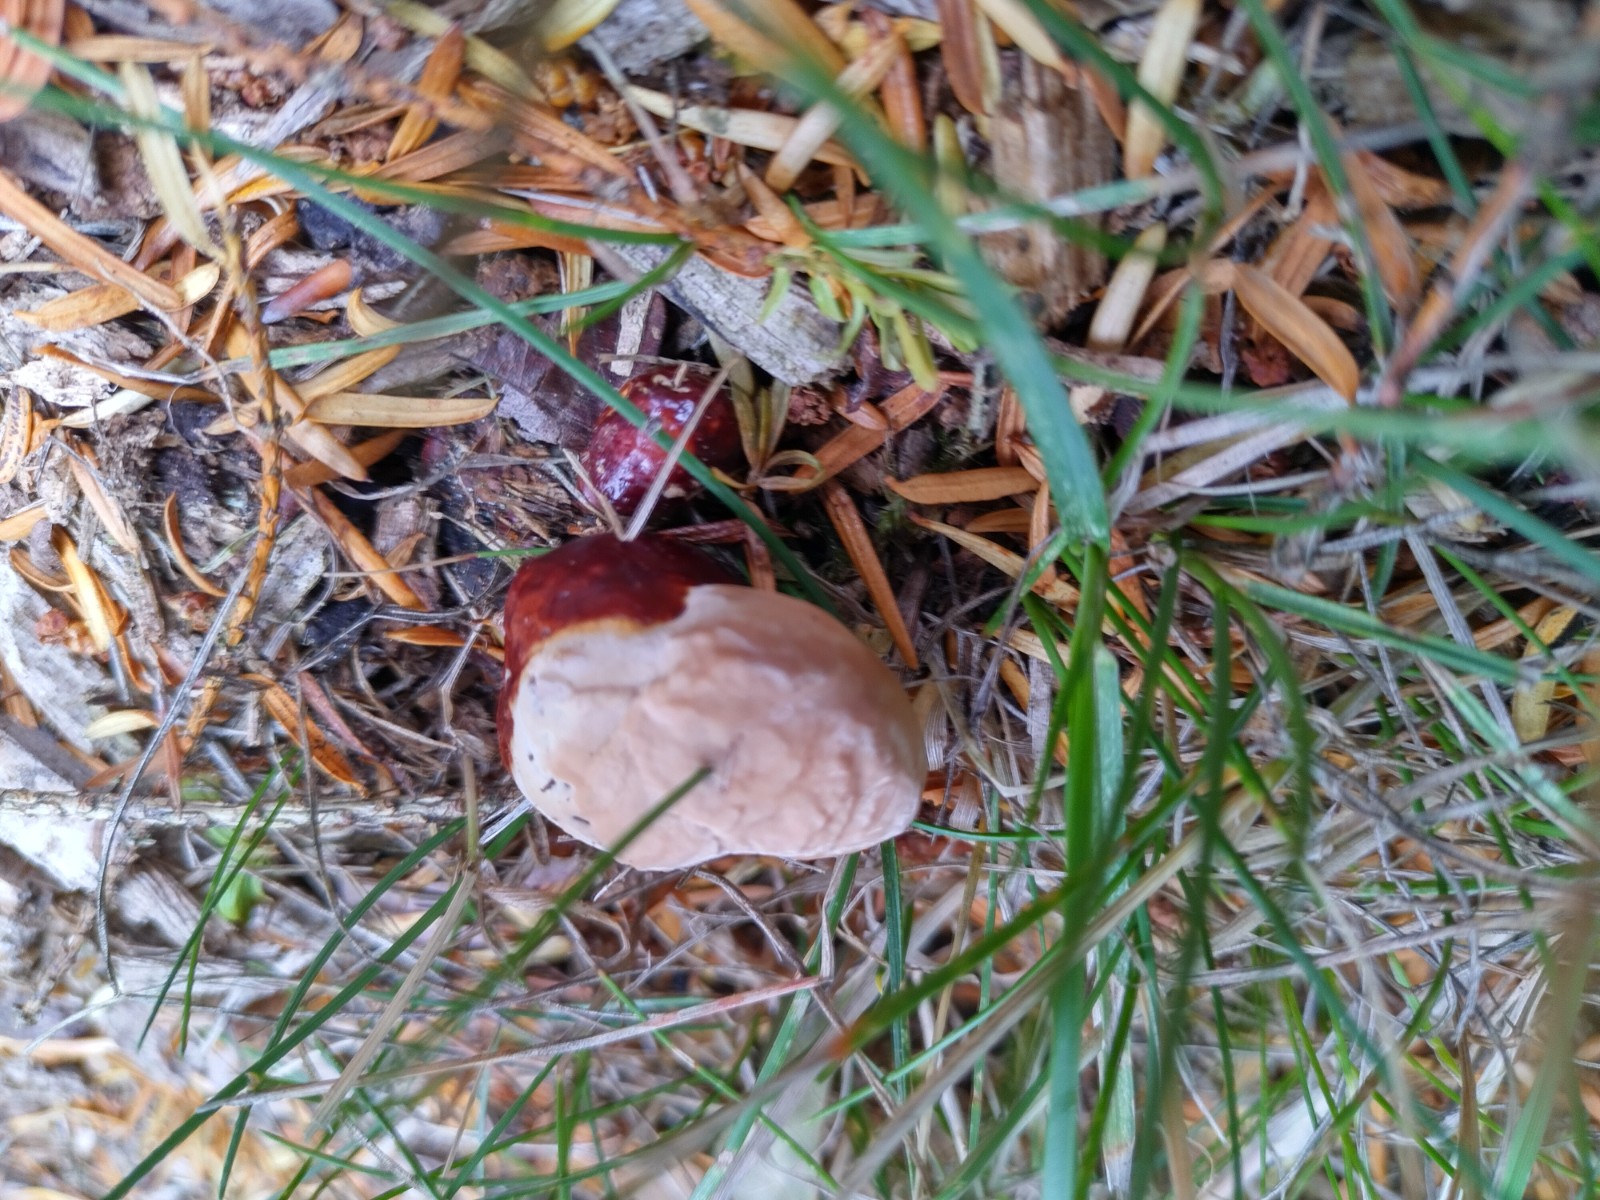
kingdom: Fungi
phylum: Basidiomycota
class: Agaricomycetes
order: Polyporales
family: Fomitopsidaceae
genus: Fomitopsis
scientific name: Fomitopsis pinicola
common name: randbæltet hovporesvamp
